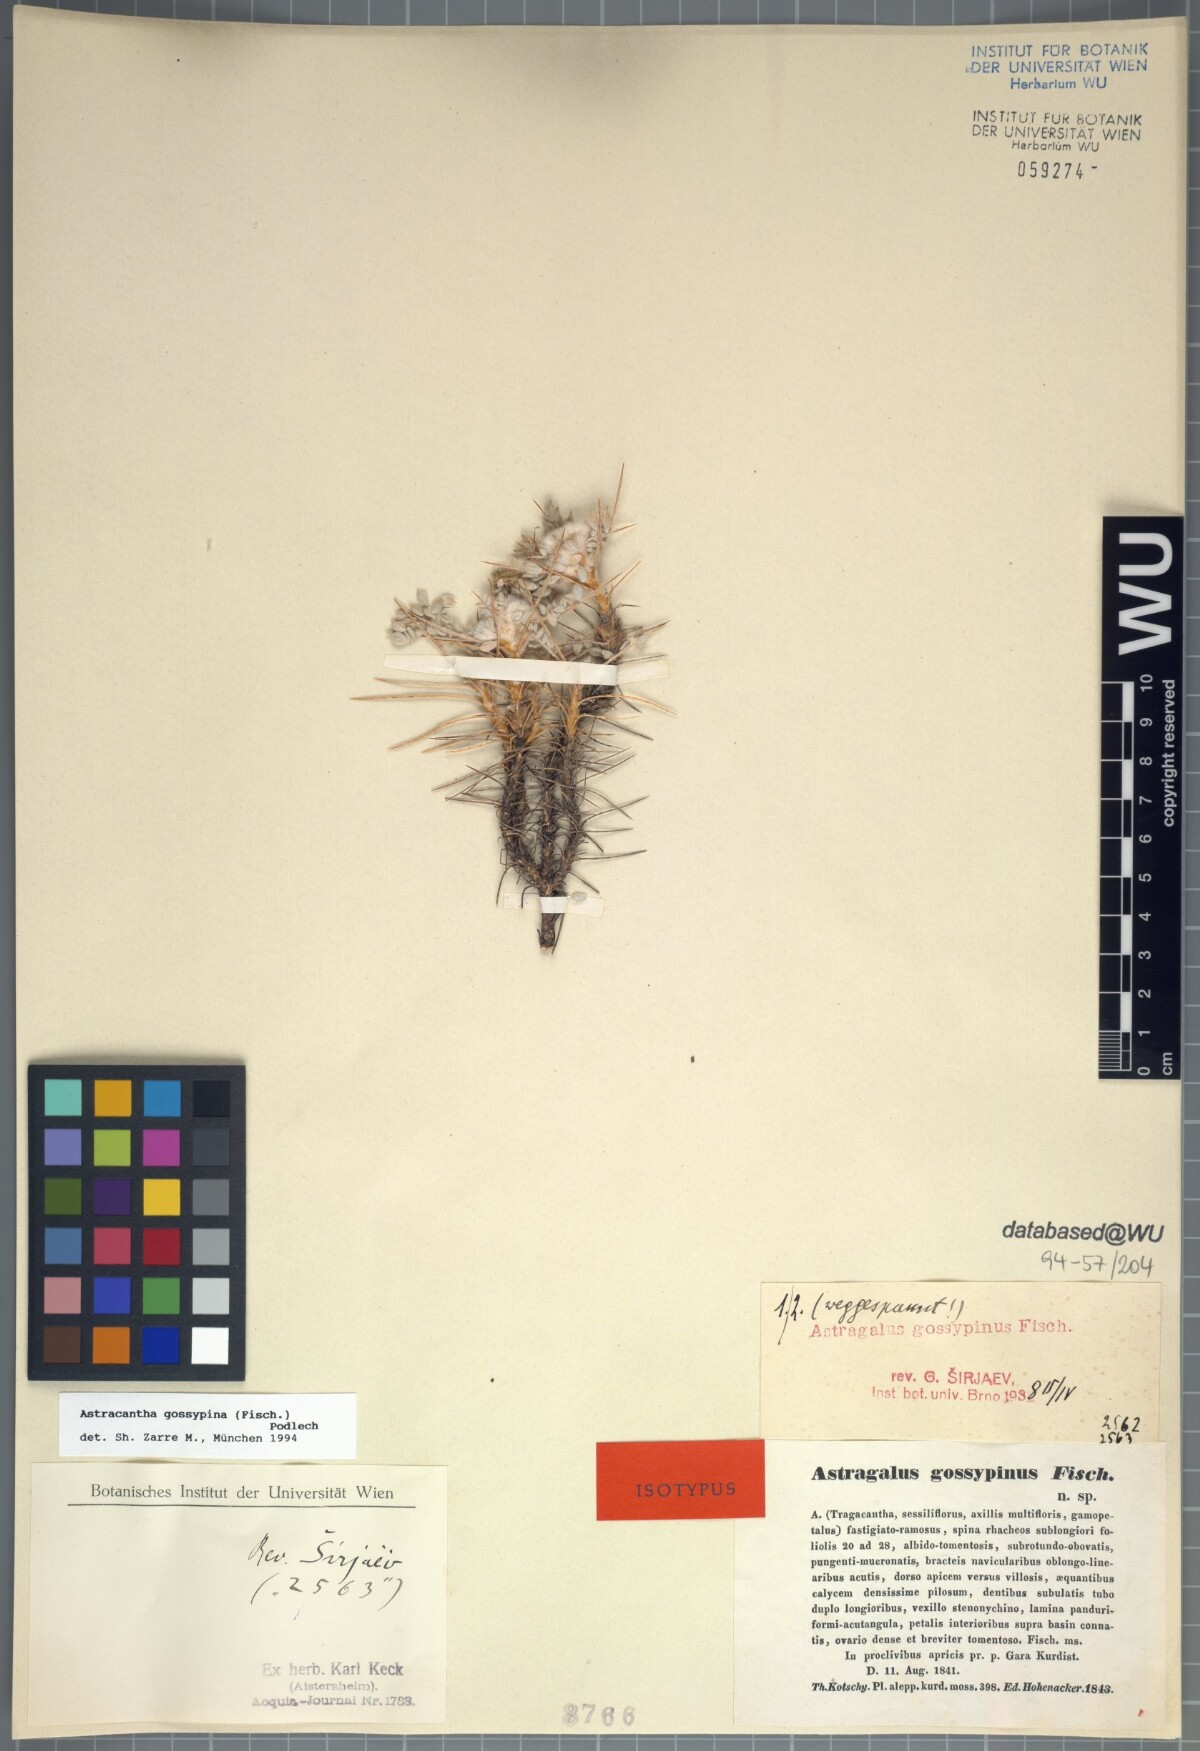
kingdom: Plantae
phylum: Tracheophyta
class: Magnoliopsida
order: Fabales
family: Fabaceae
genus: Astragalus
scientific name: Astragalus gossypinus
